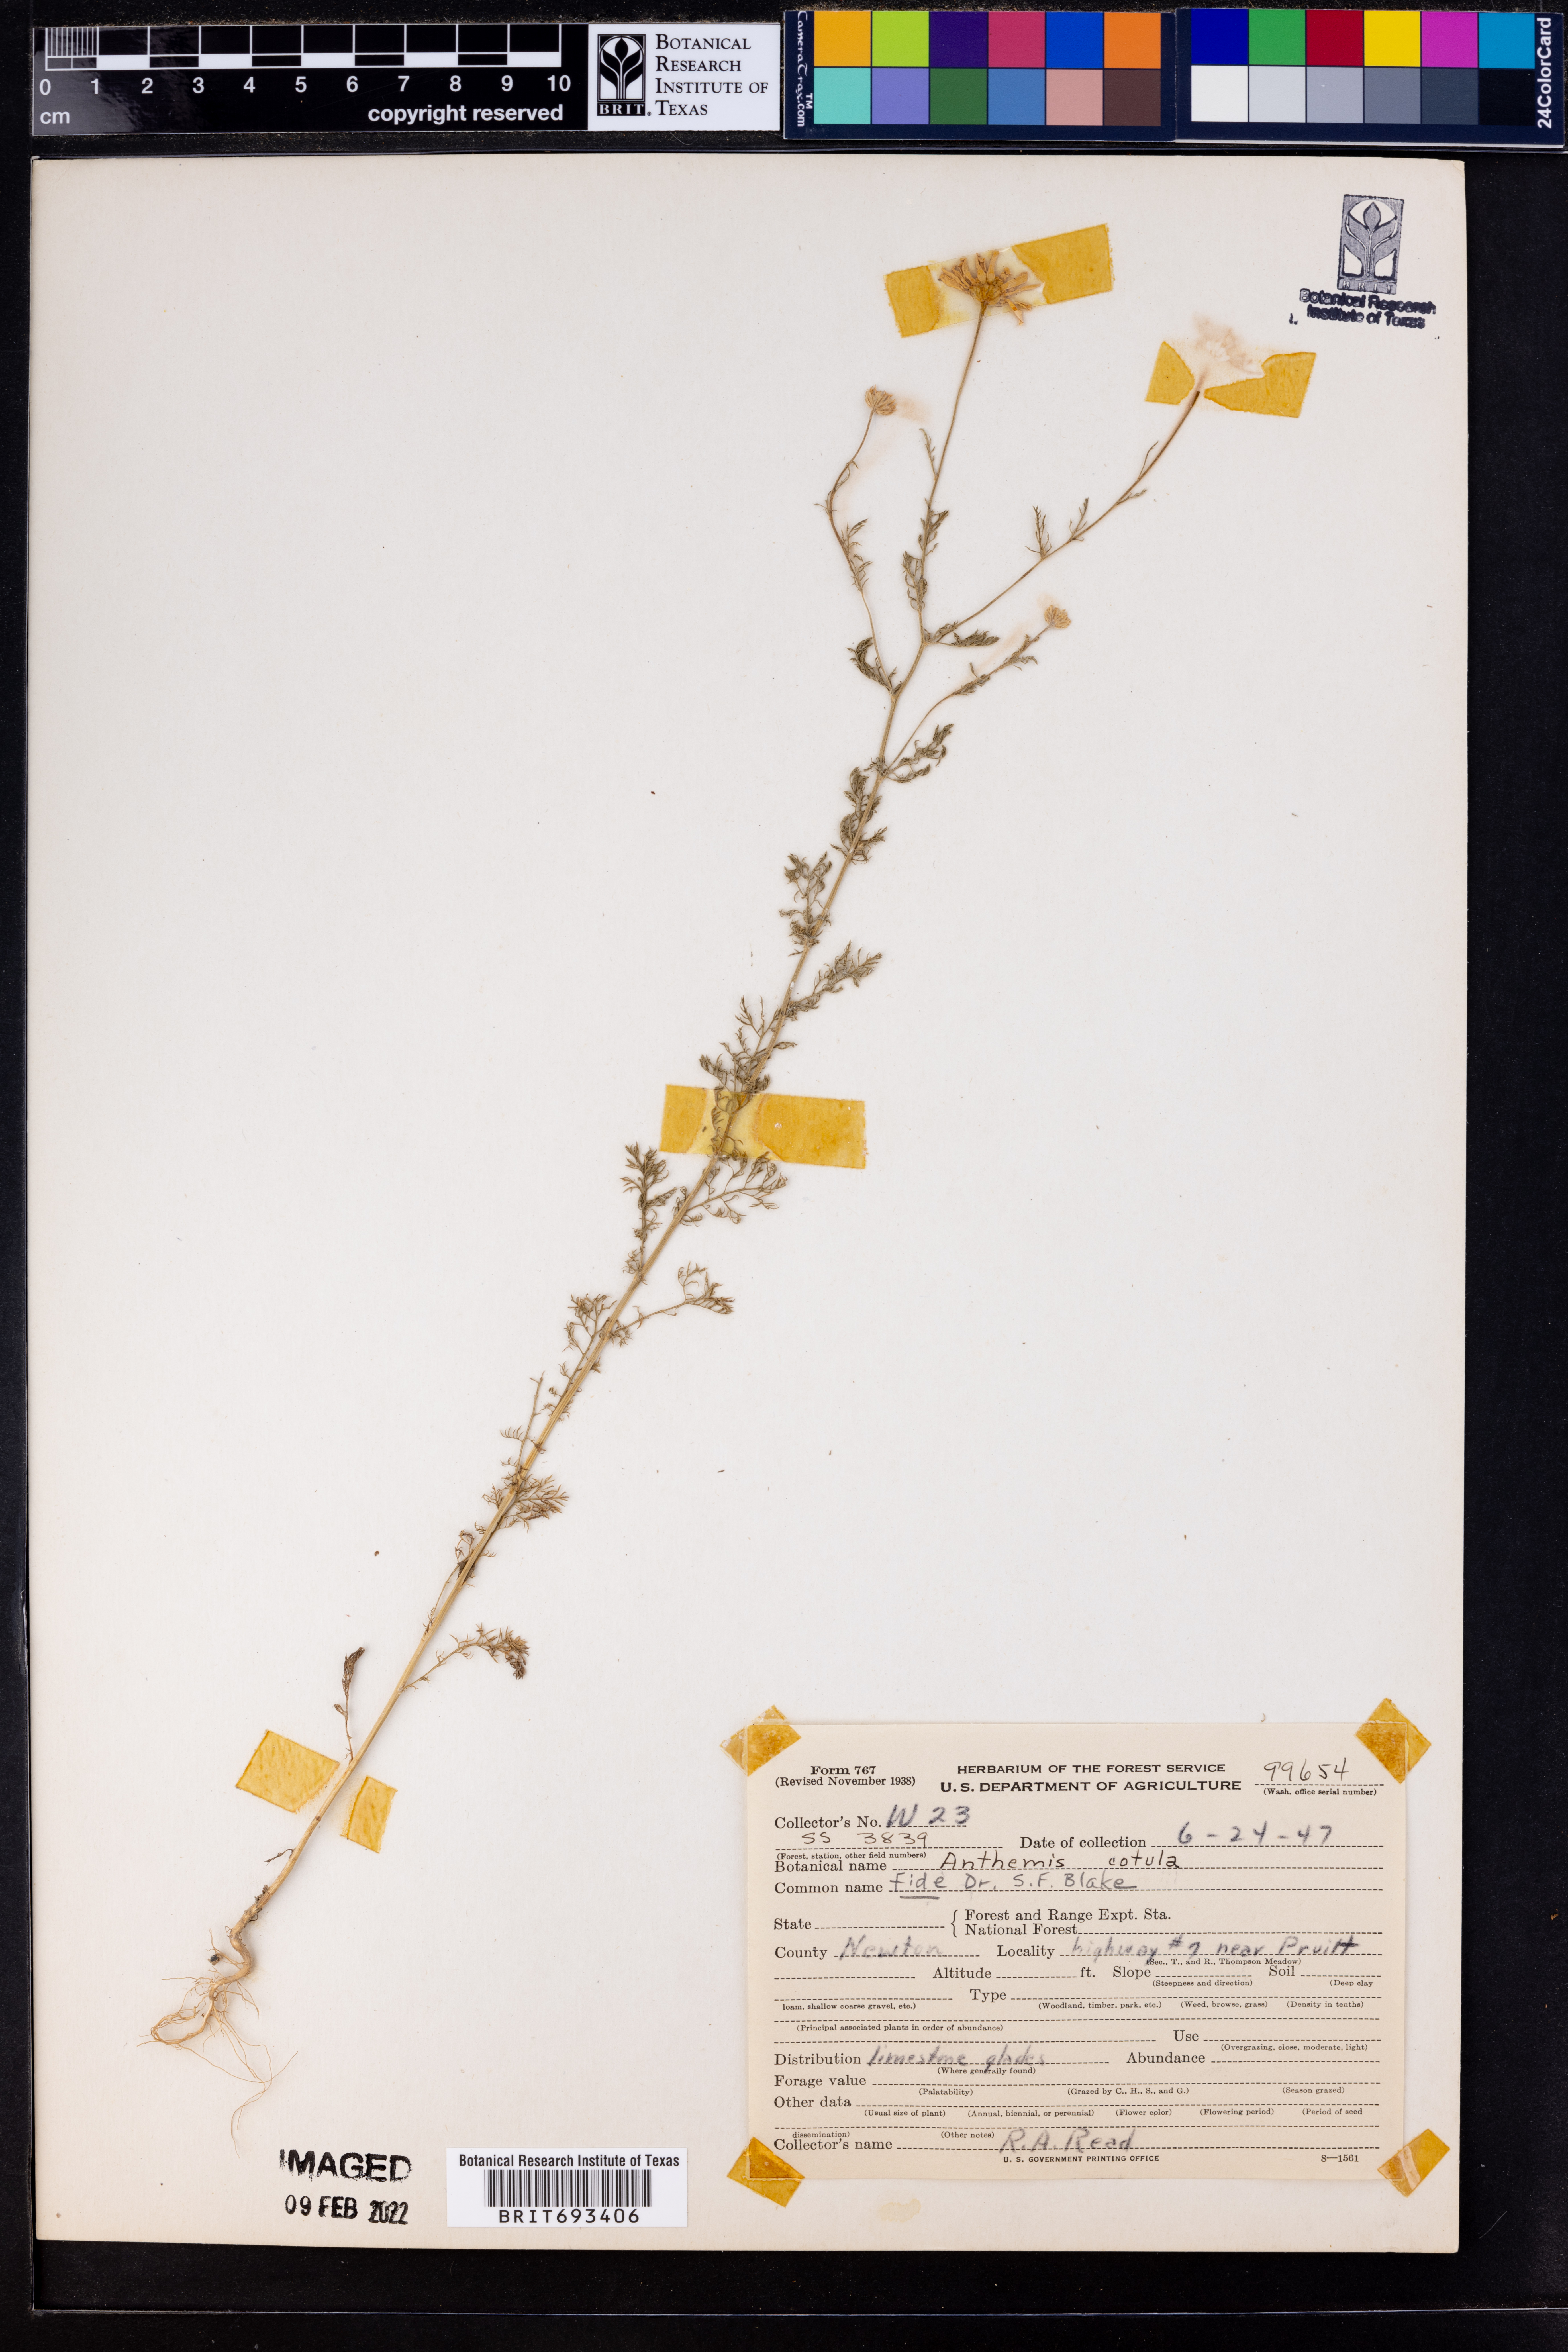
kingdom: Plantae
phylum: Tracheophyta
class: Magnoliopsida
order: Asterales
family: Asteraceae
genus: Anthemis
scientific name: Anthemis cotula
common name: Stinking chamomile
